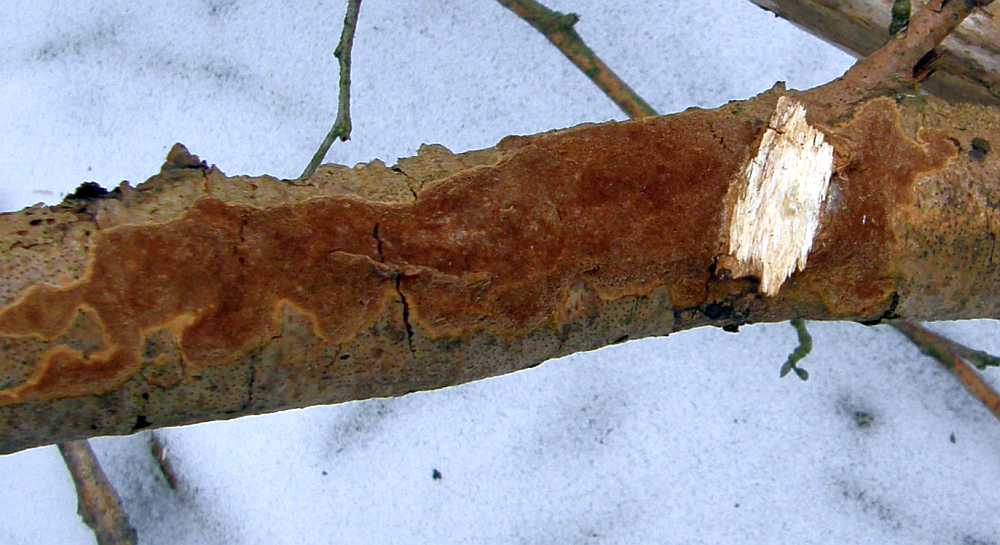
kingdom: Fungi
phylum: Basidiomycota
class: Agaricomycetes
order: Hymenochaetales
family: Hymenochaetaceae
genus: Fuscoporia
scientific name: Fuscoporia ferrea
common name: skorpe-ildporesvamp
